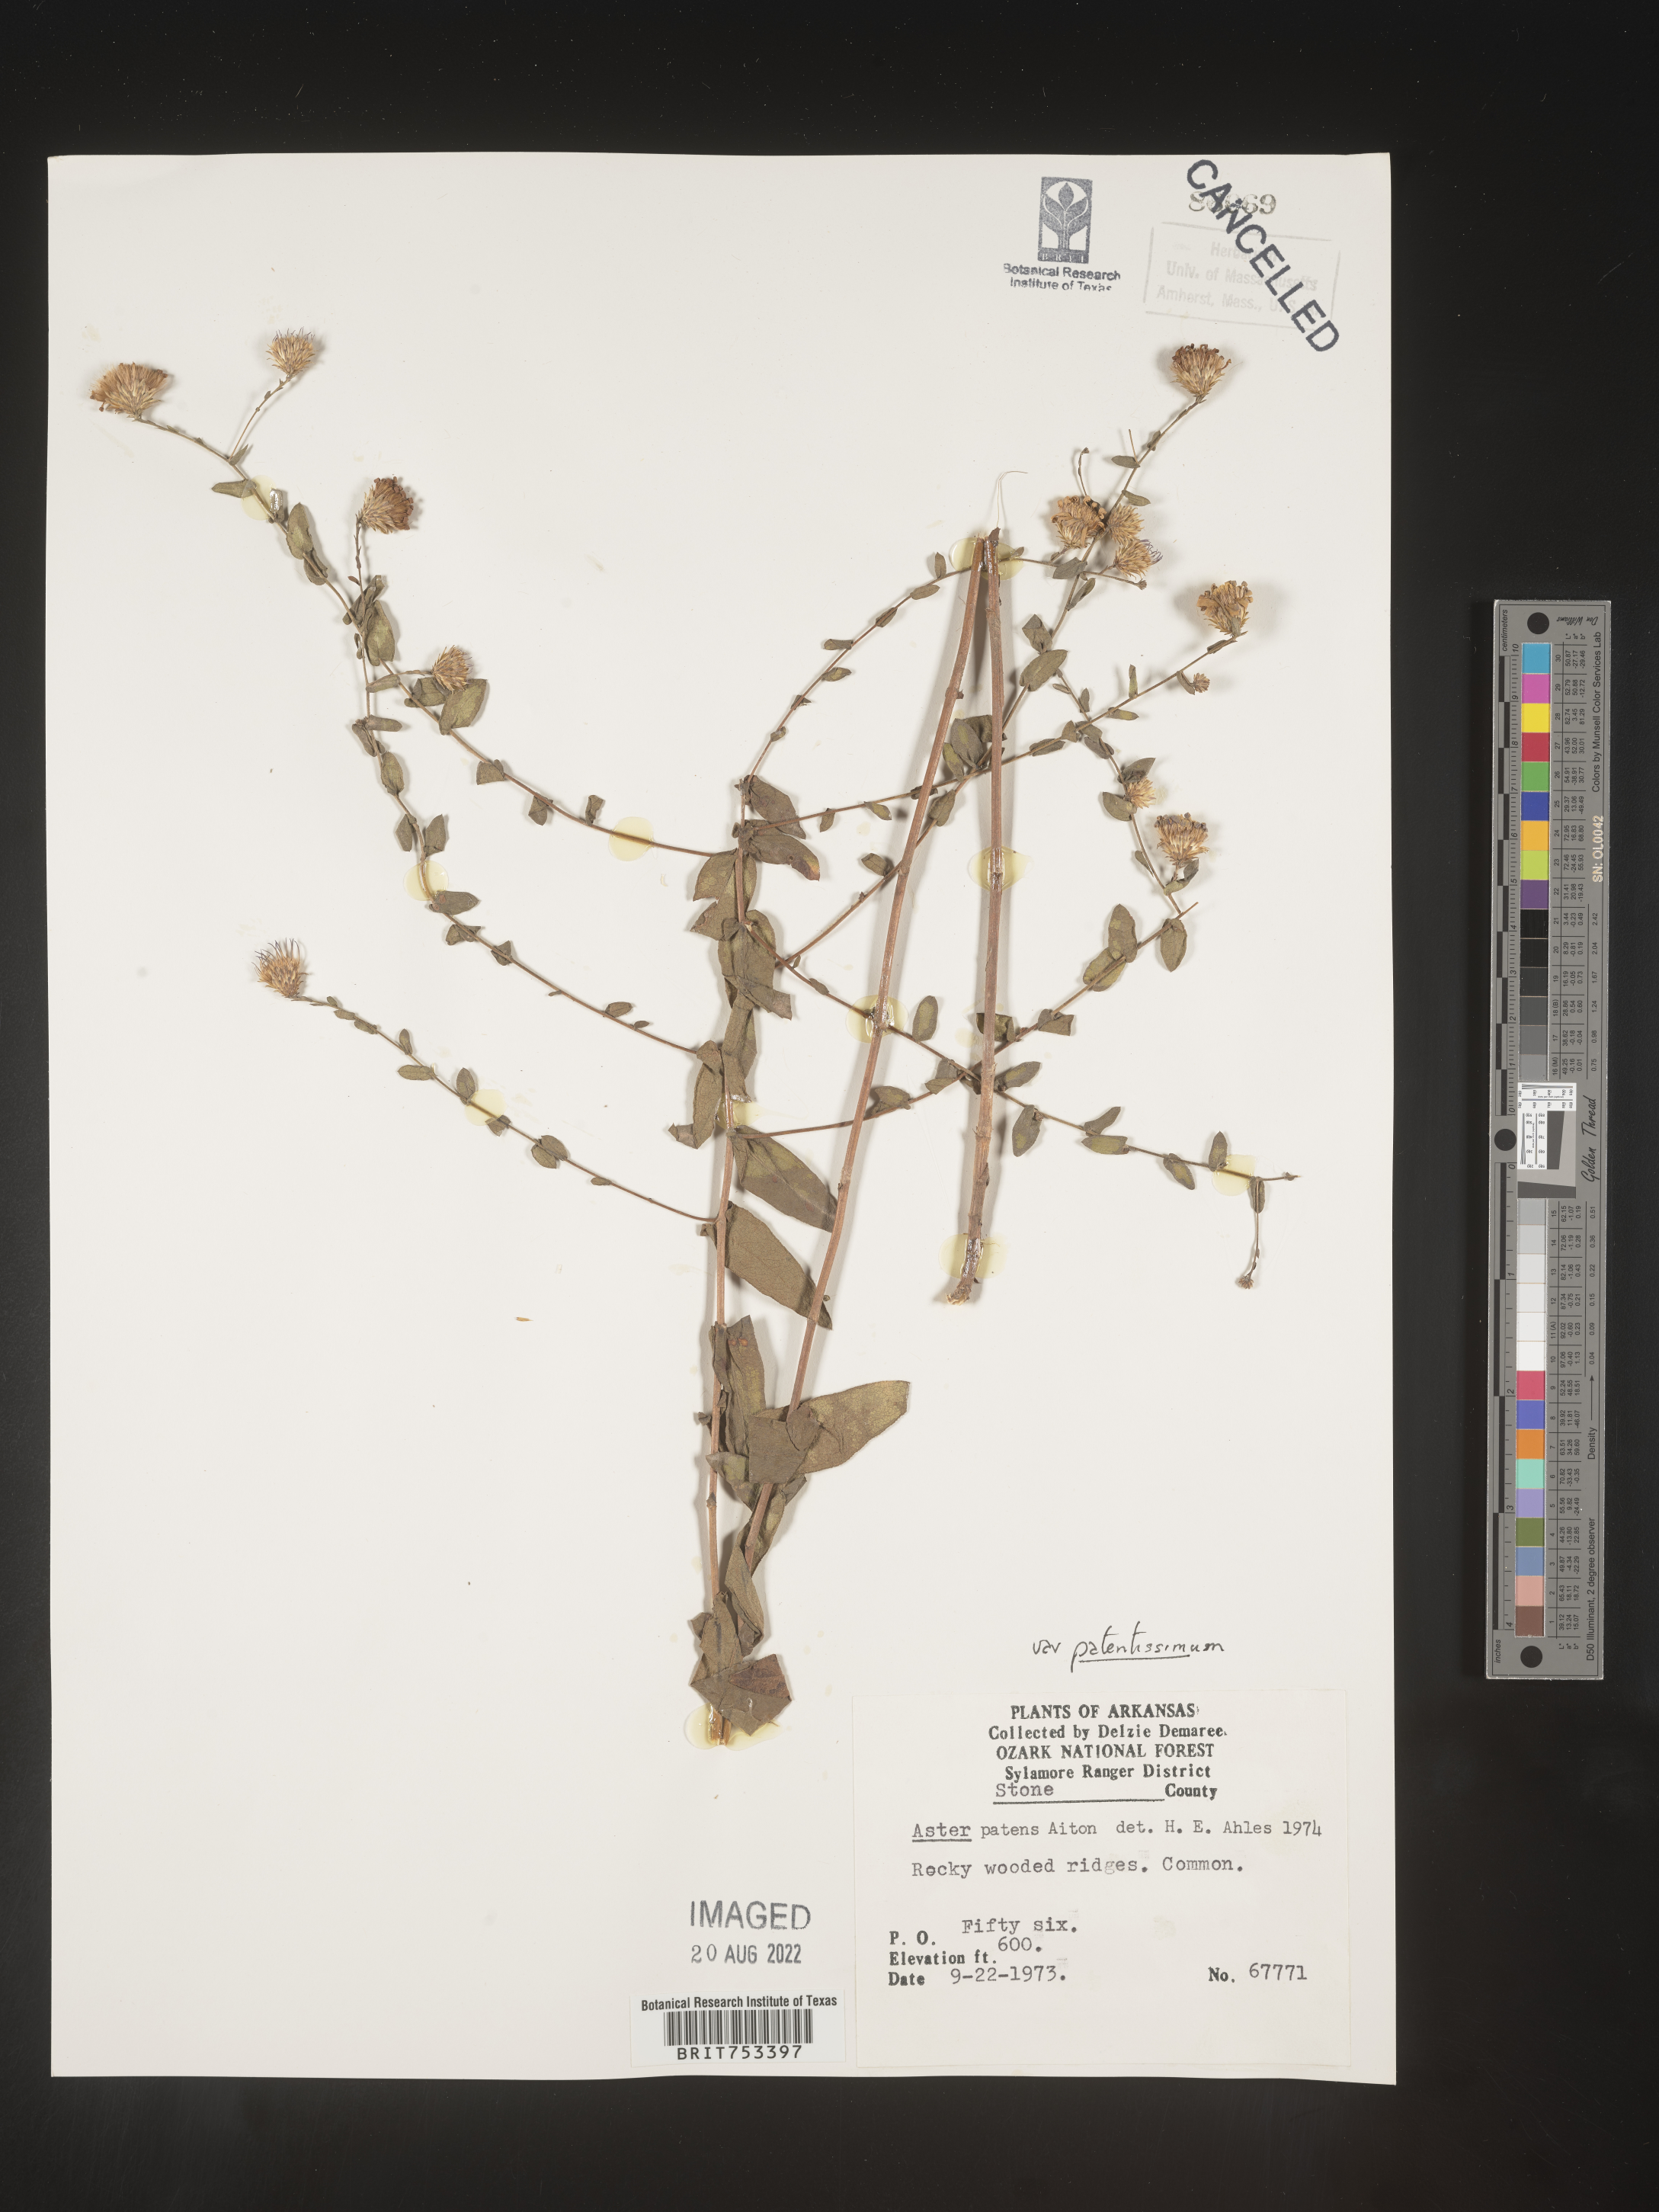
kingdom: Plantae
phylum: Tracheophyta
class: Magnoliopsida
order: Asterales
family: Asteraceae
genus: Symphyotrichum
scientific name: Symphyotrichum patens
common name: Late purple aster
